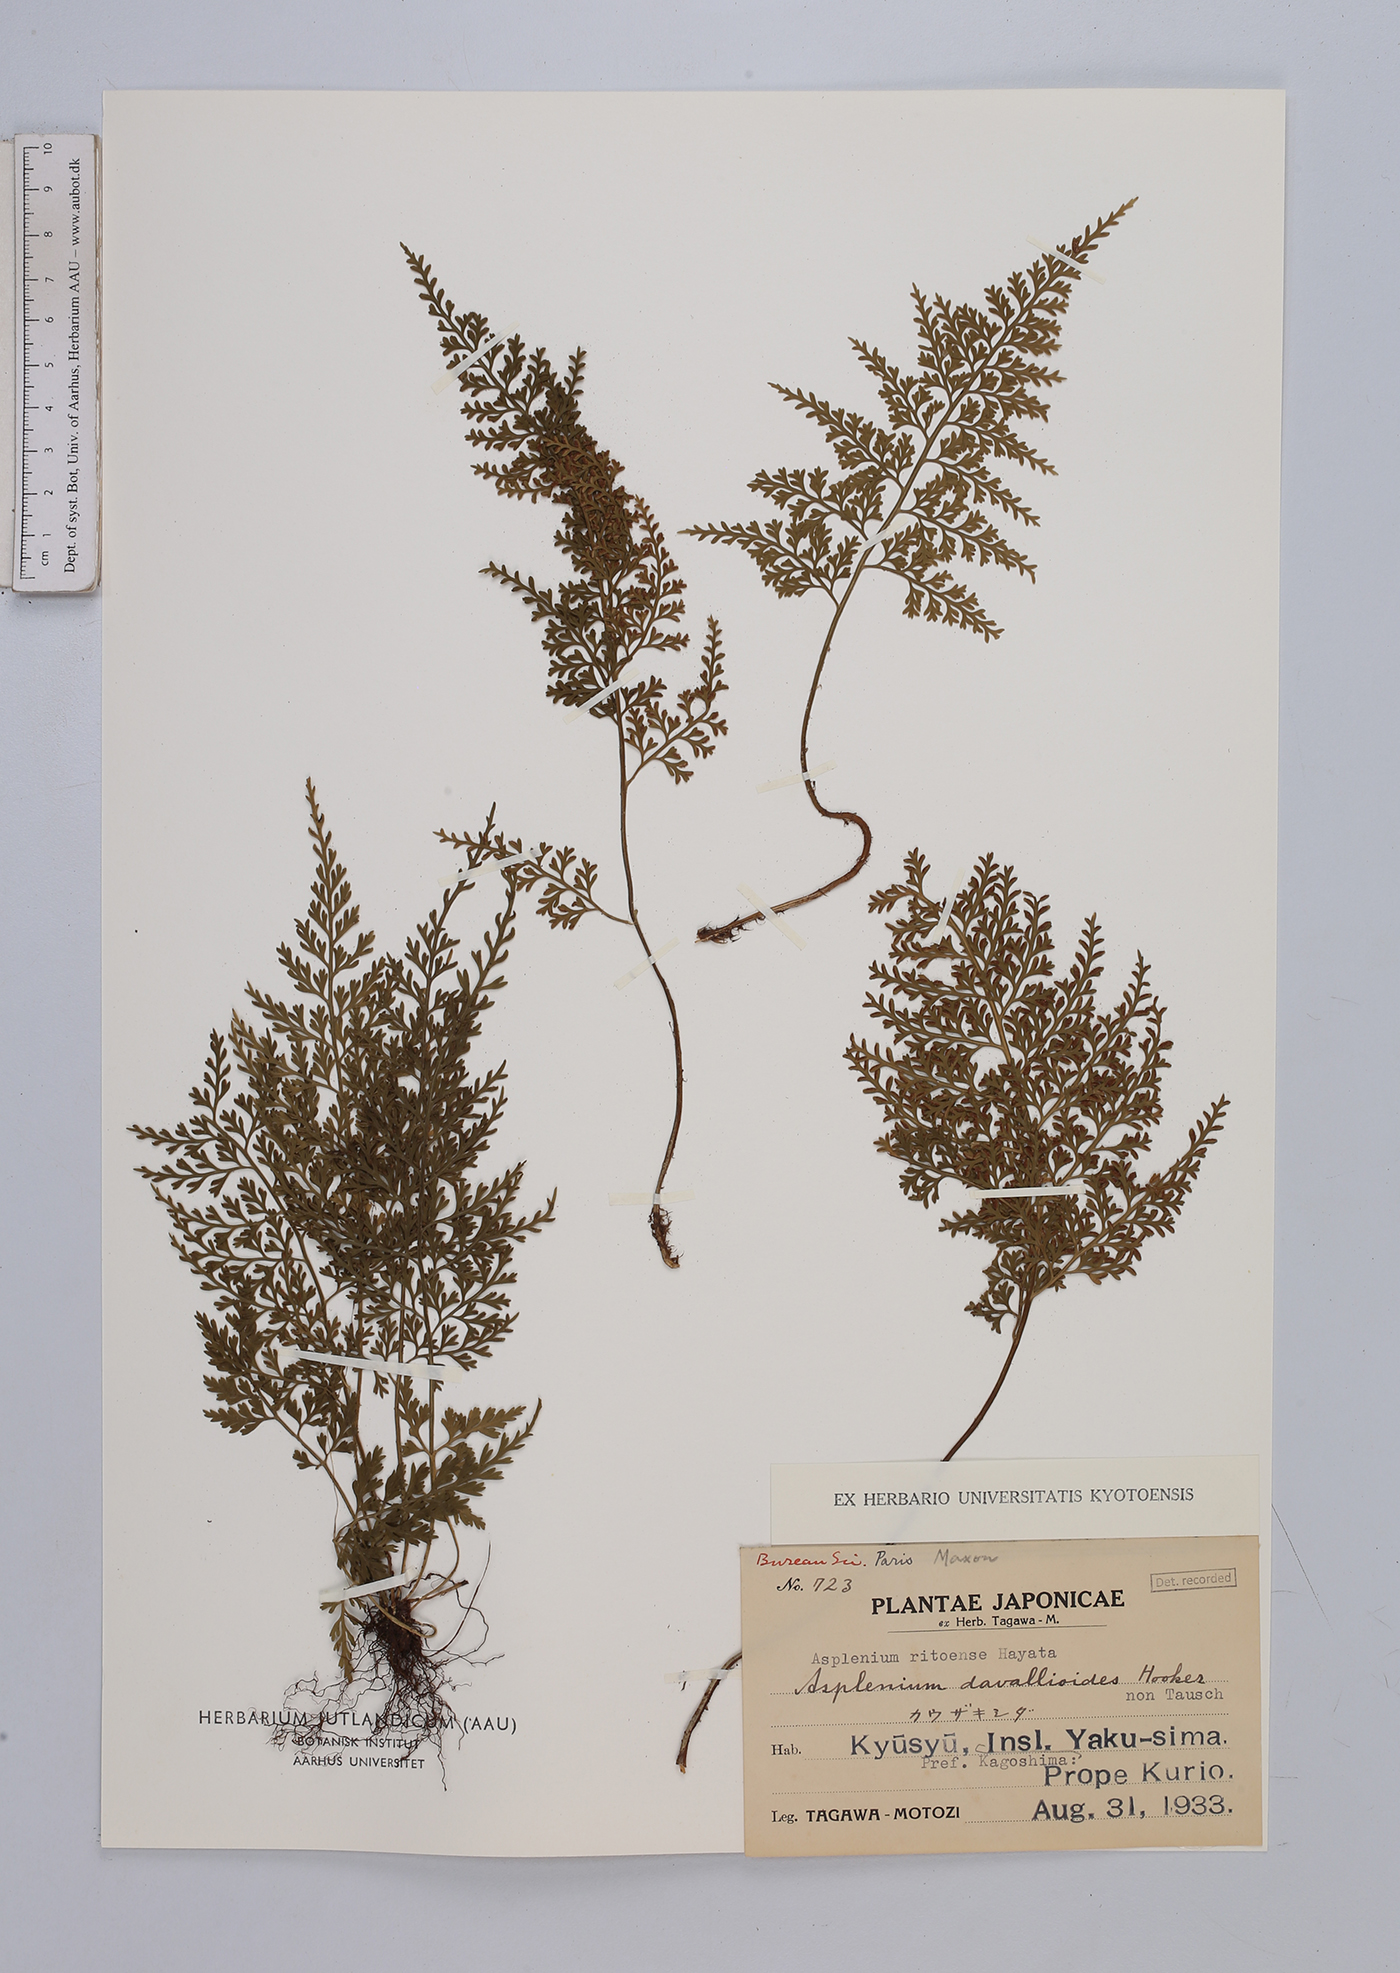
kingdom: Plantae
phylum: Tracheophyta
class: Polypodiopsida
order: Polypodiales
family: Aspleniaceae
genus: Asplenium
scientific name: Asplenium ritoense
